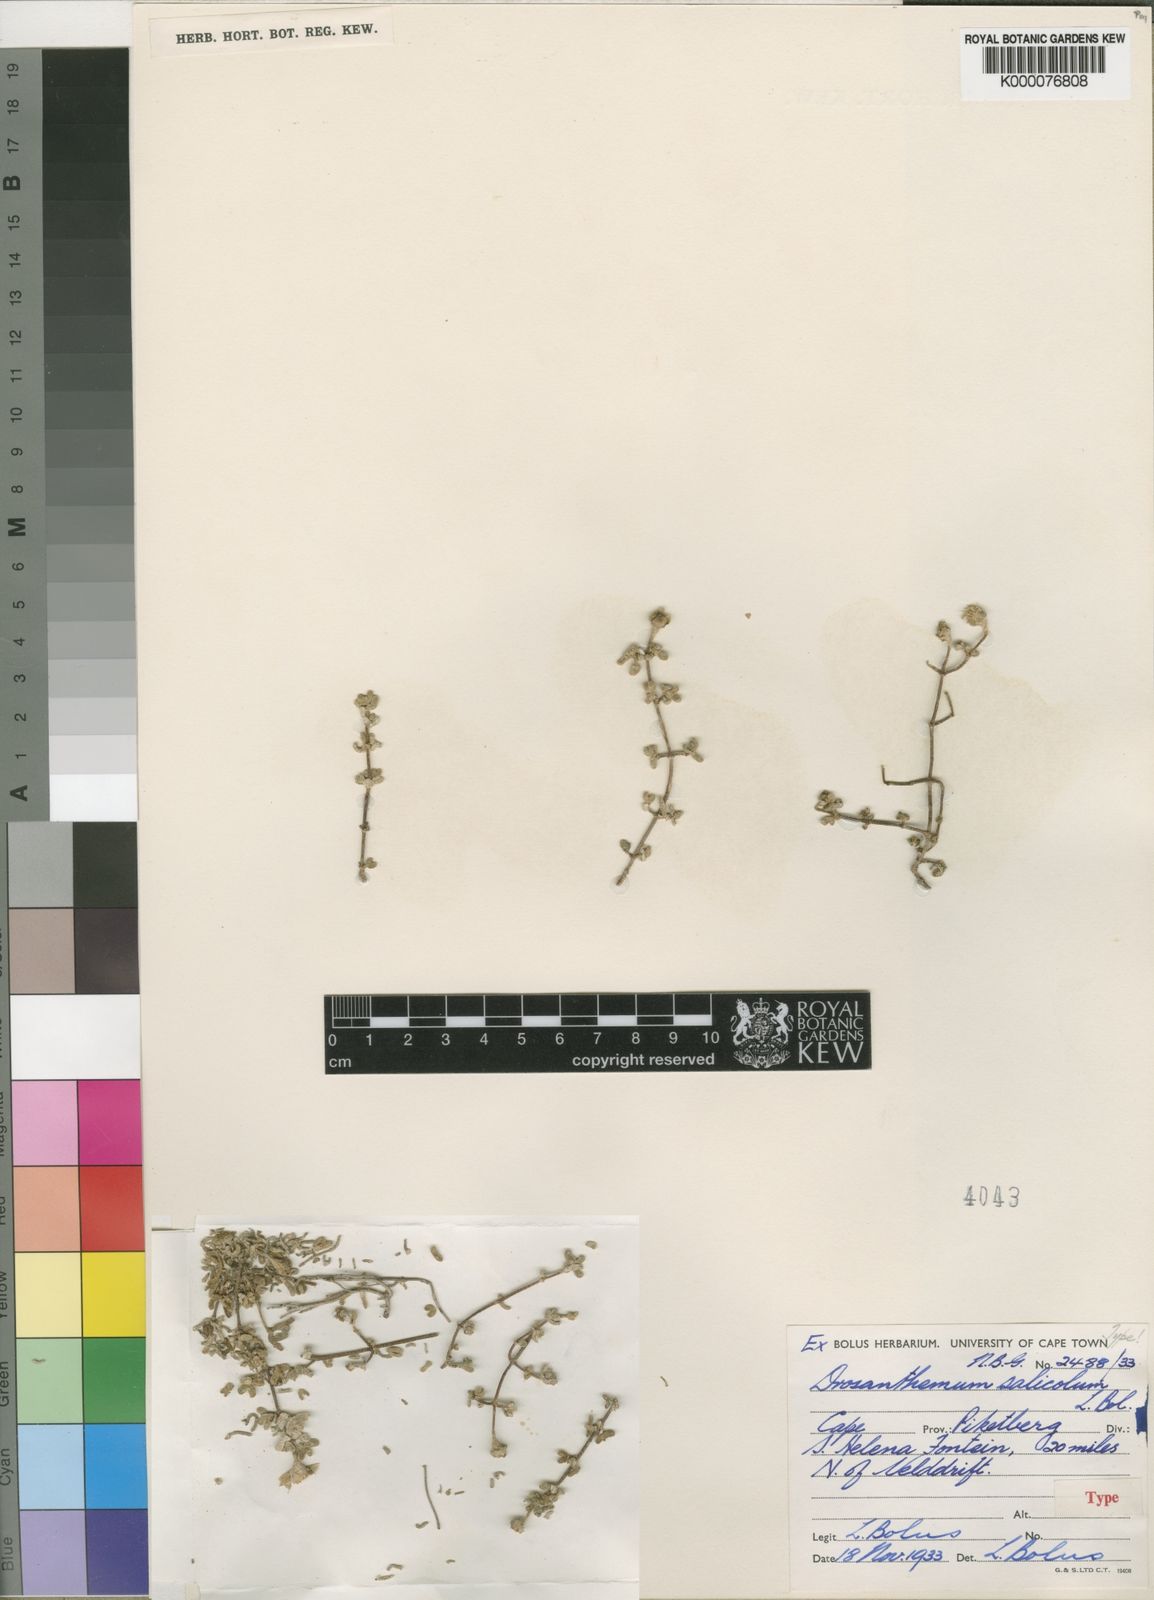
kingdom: Plantae
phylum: Tracheophyta
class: Magnoliopsida
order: Caryophyllales
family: Aizoaceae
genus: Drosanthemum
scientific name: Drosanthemum salicola
